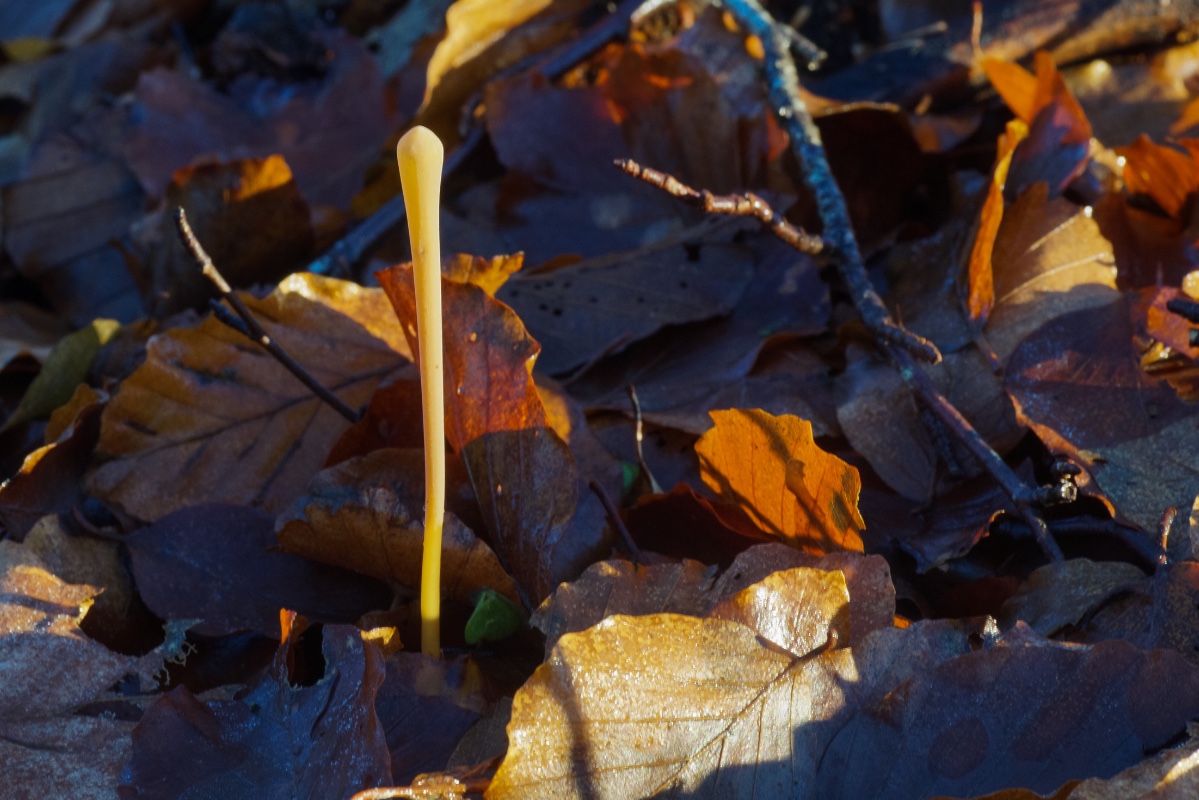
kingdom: Fungi
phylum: Basidiomycota
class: Agaricomycetes
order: Agaricales
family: Typhulaceae
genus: Typhula
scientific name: Typhula fistulosa
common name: pibet rørkølle
